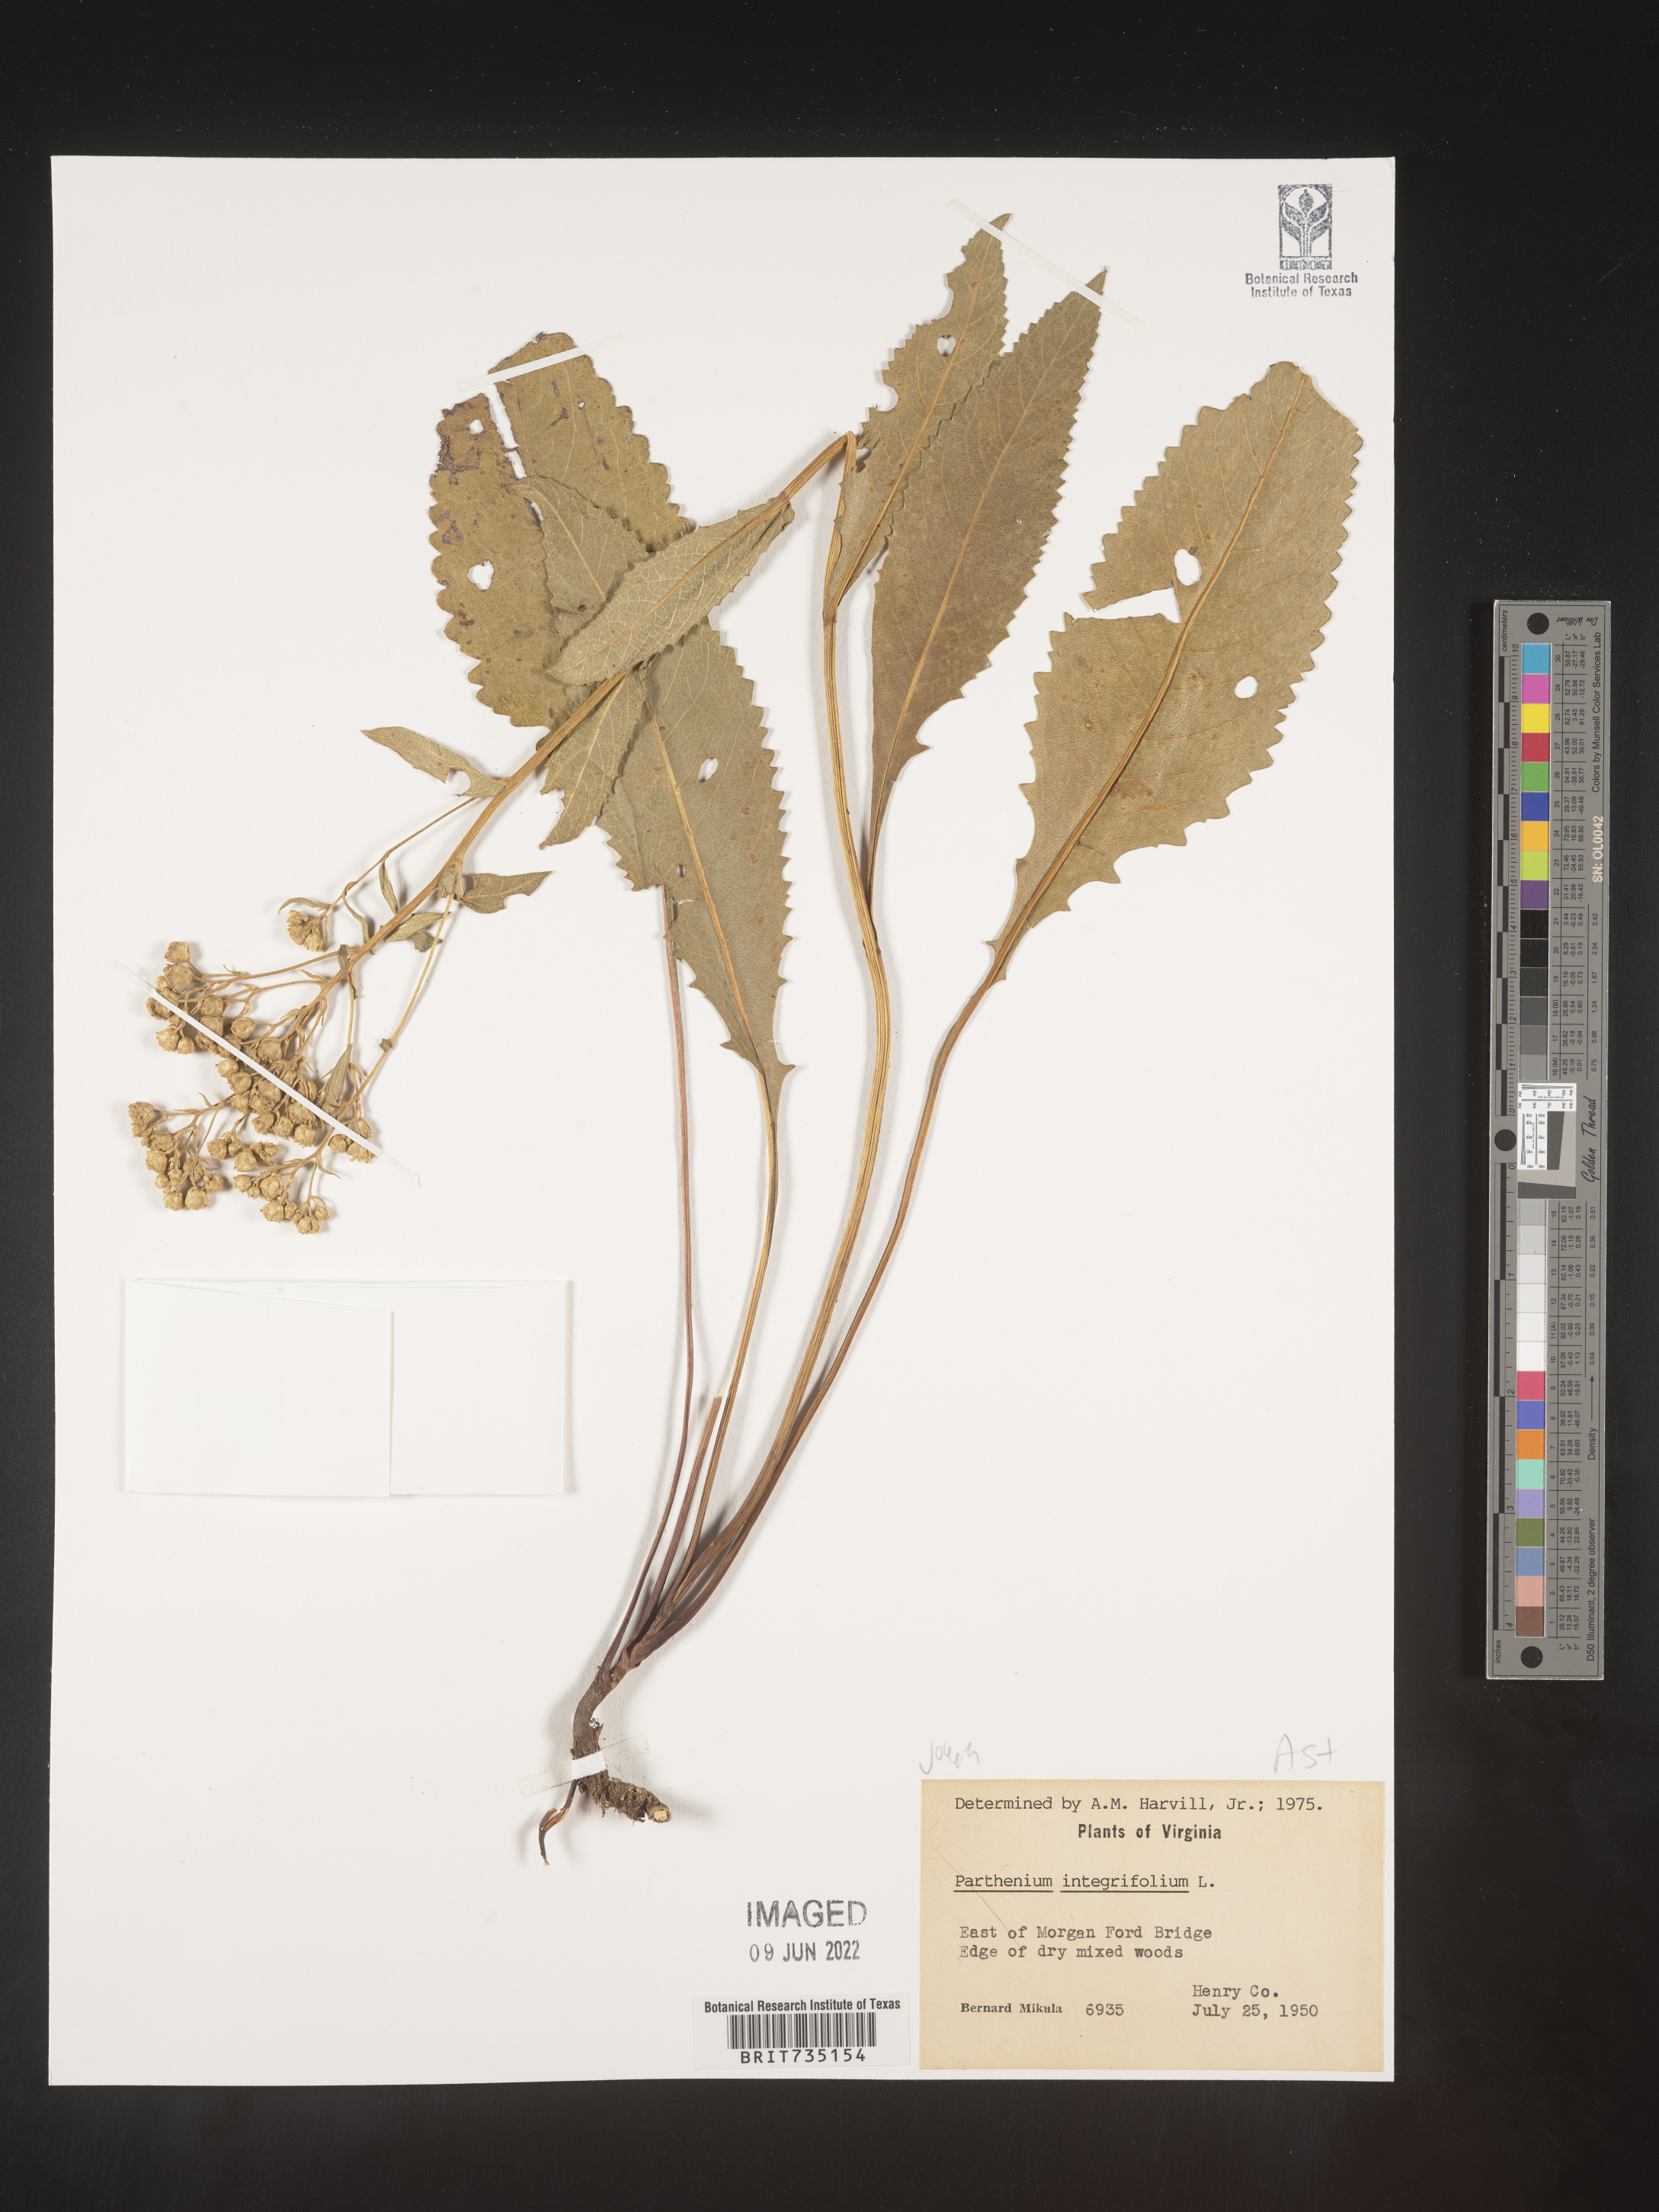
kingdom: Plantae
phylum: Tracheophyta
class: Magnoliopsida
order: Asterales
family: Asteraceae
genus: Parthenium
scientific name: Parthenium integrifolium
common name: American feverfew
